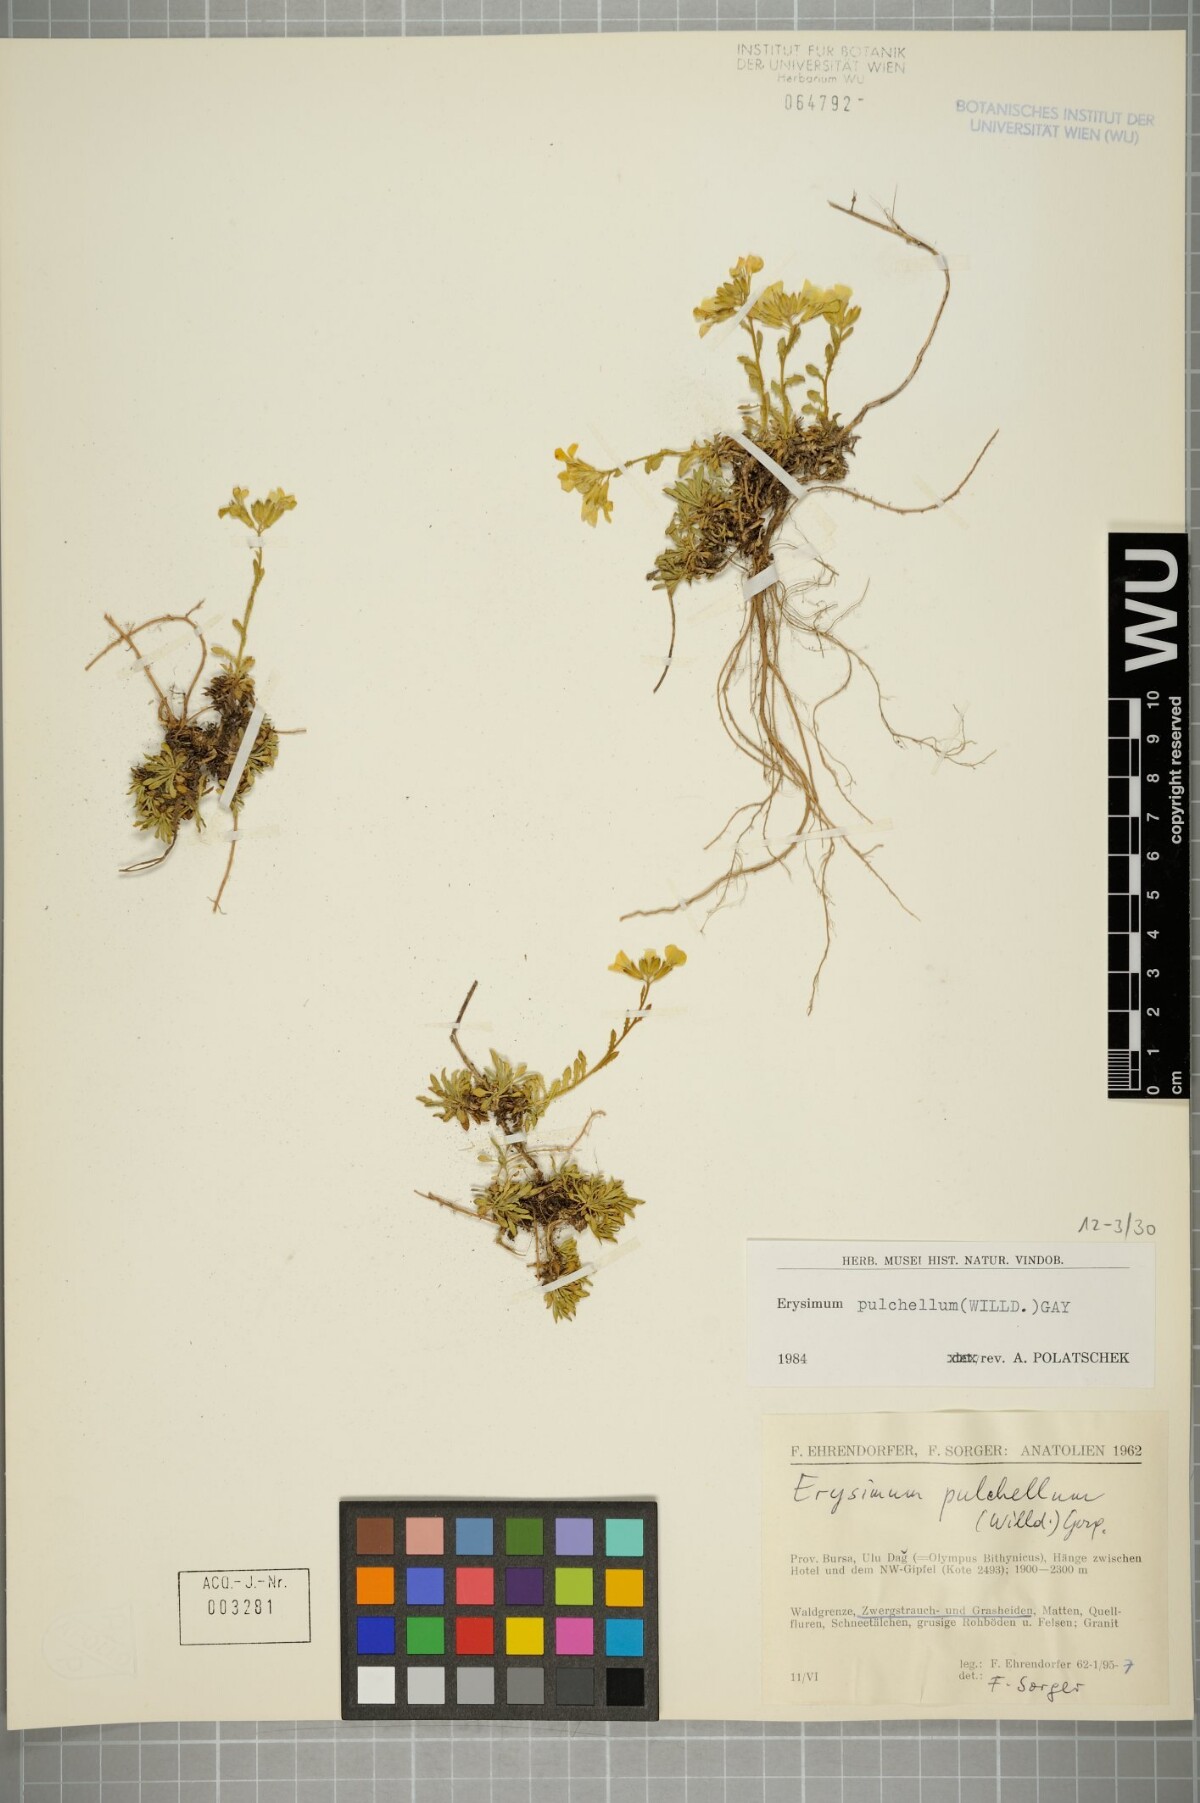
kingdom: Plantae
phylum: Tracheophyta
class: Magnoliopsida
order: Brassicales
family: Brassicaceae
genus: Erysimum
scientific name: Erysimum pulchellum
